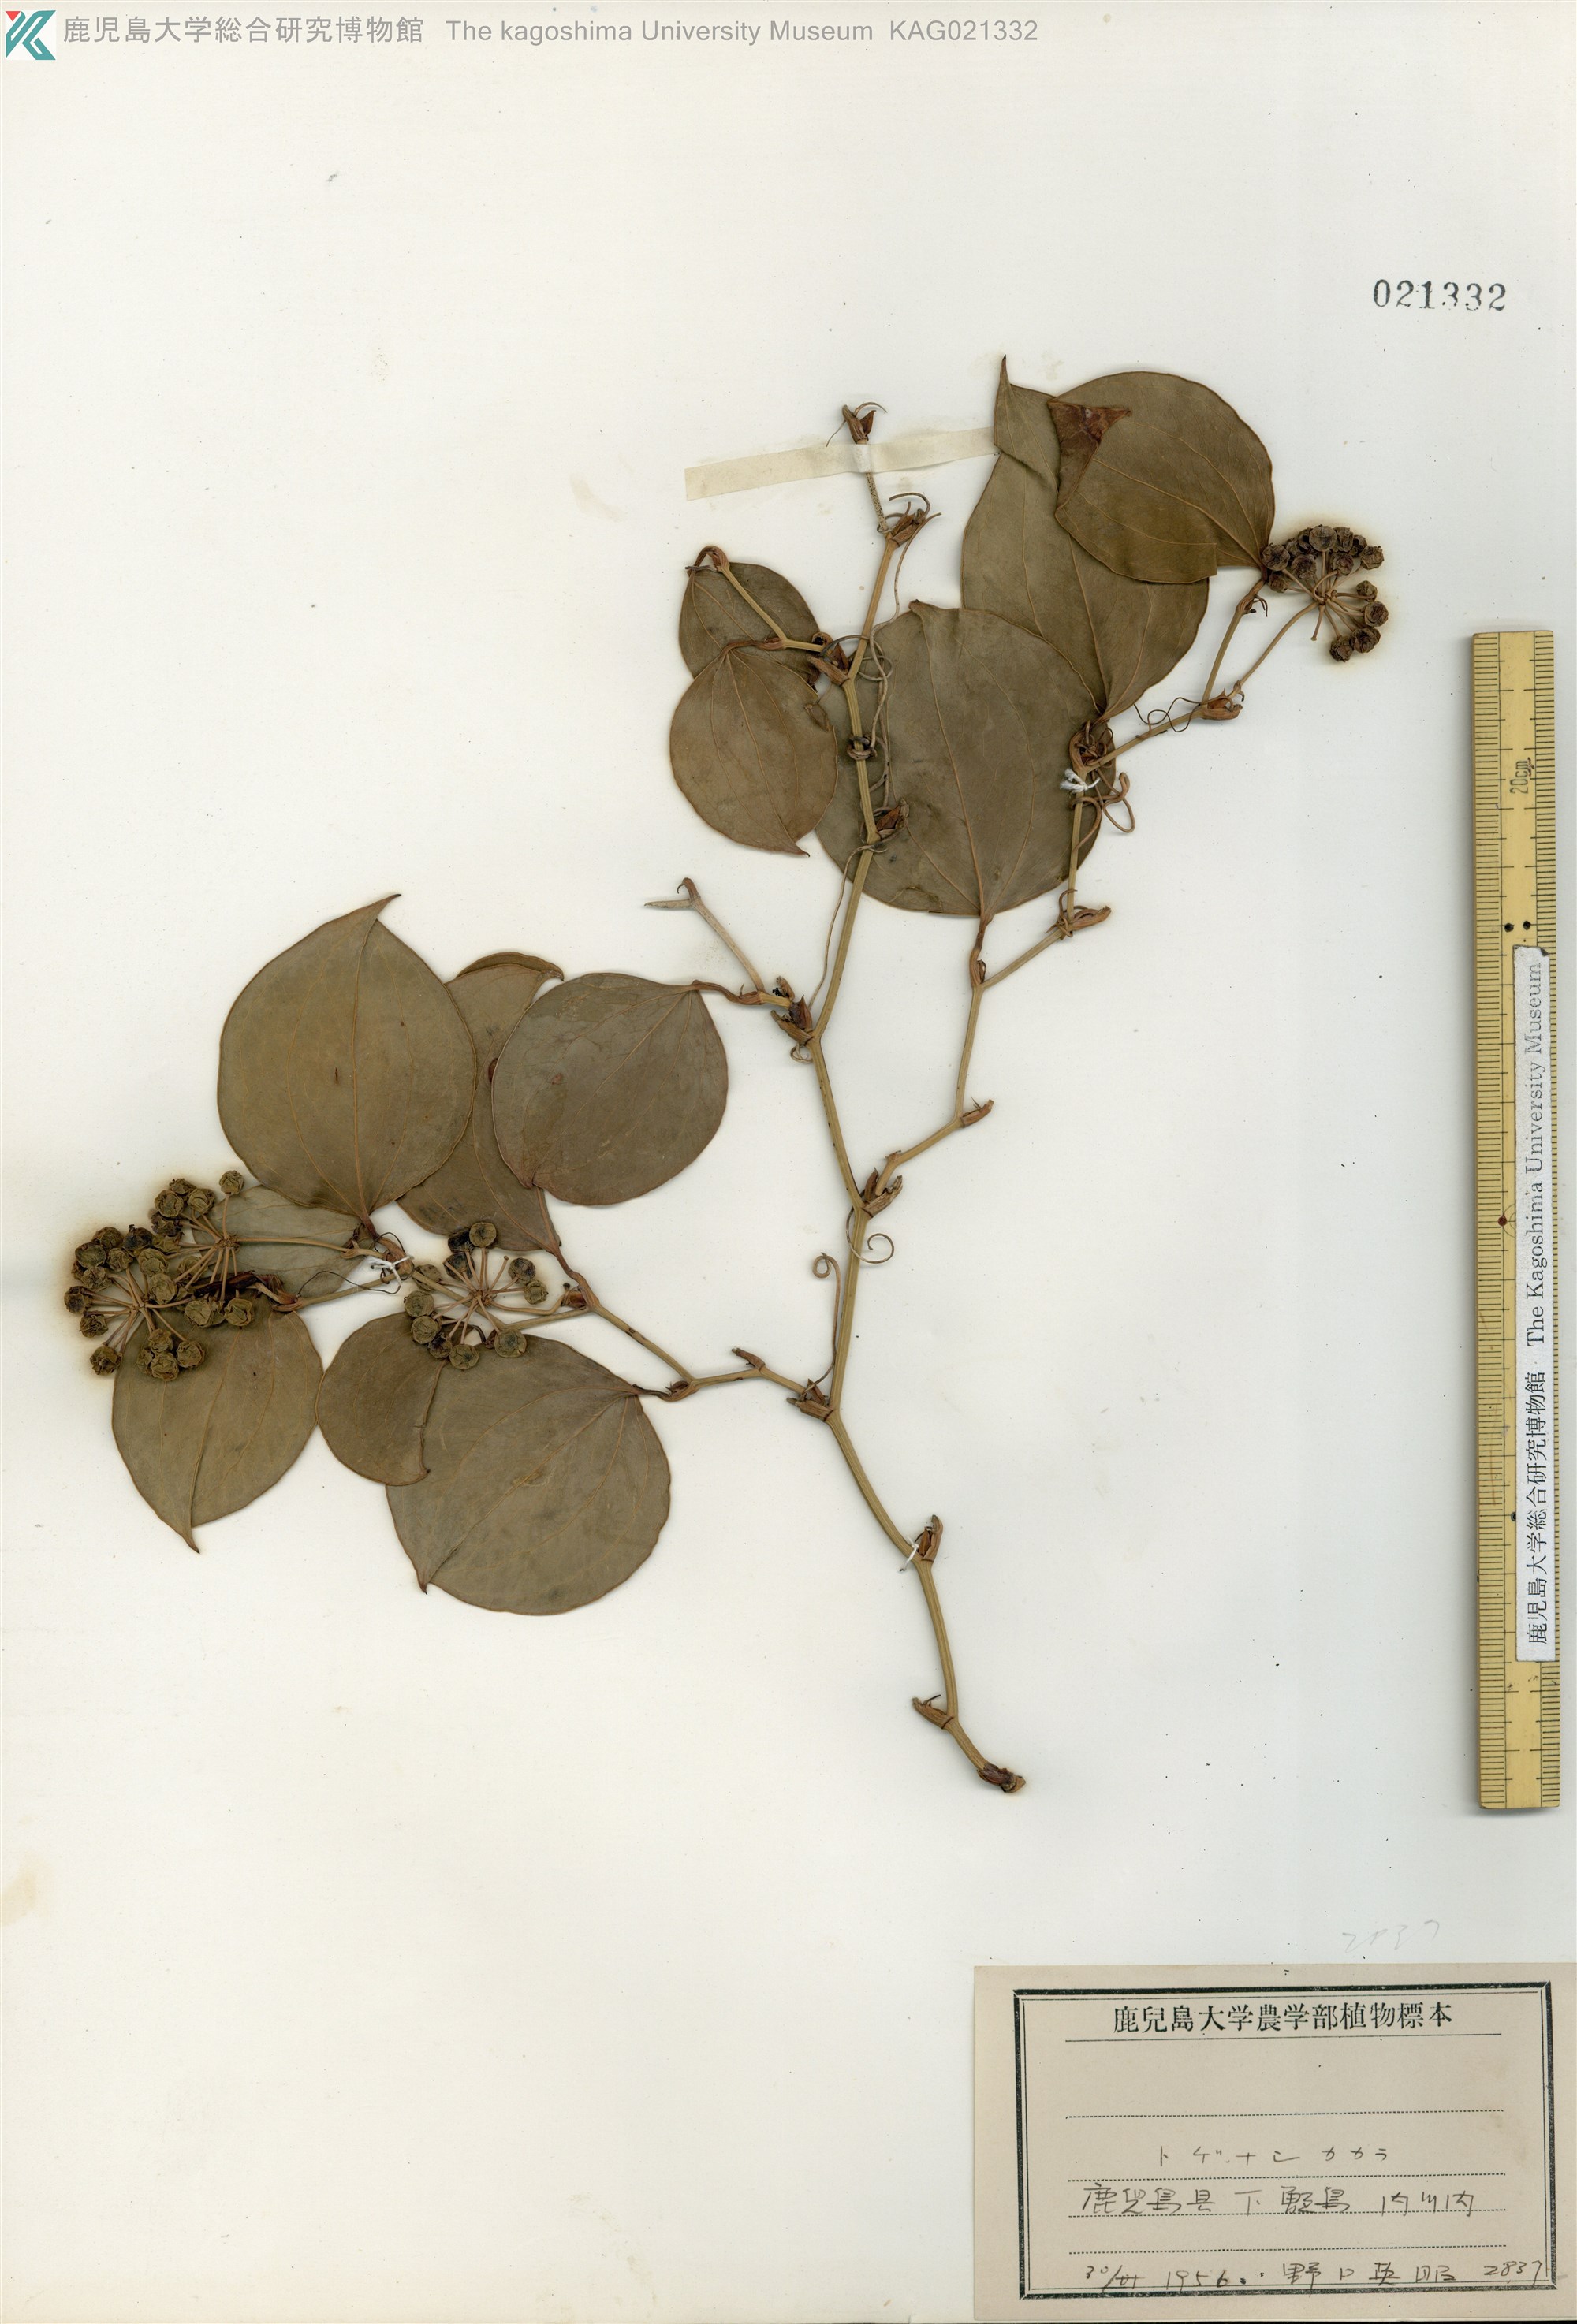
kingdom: Plantae
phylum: Tracheophyta
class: Liliopsida
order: Liliales
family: Smilacaceae
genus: Smilax
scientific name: Smilax sebeana
